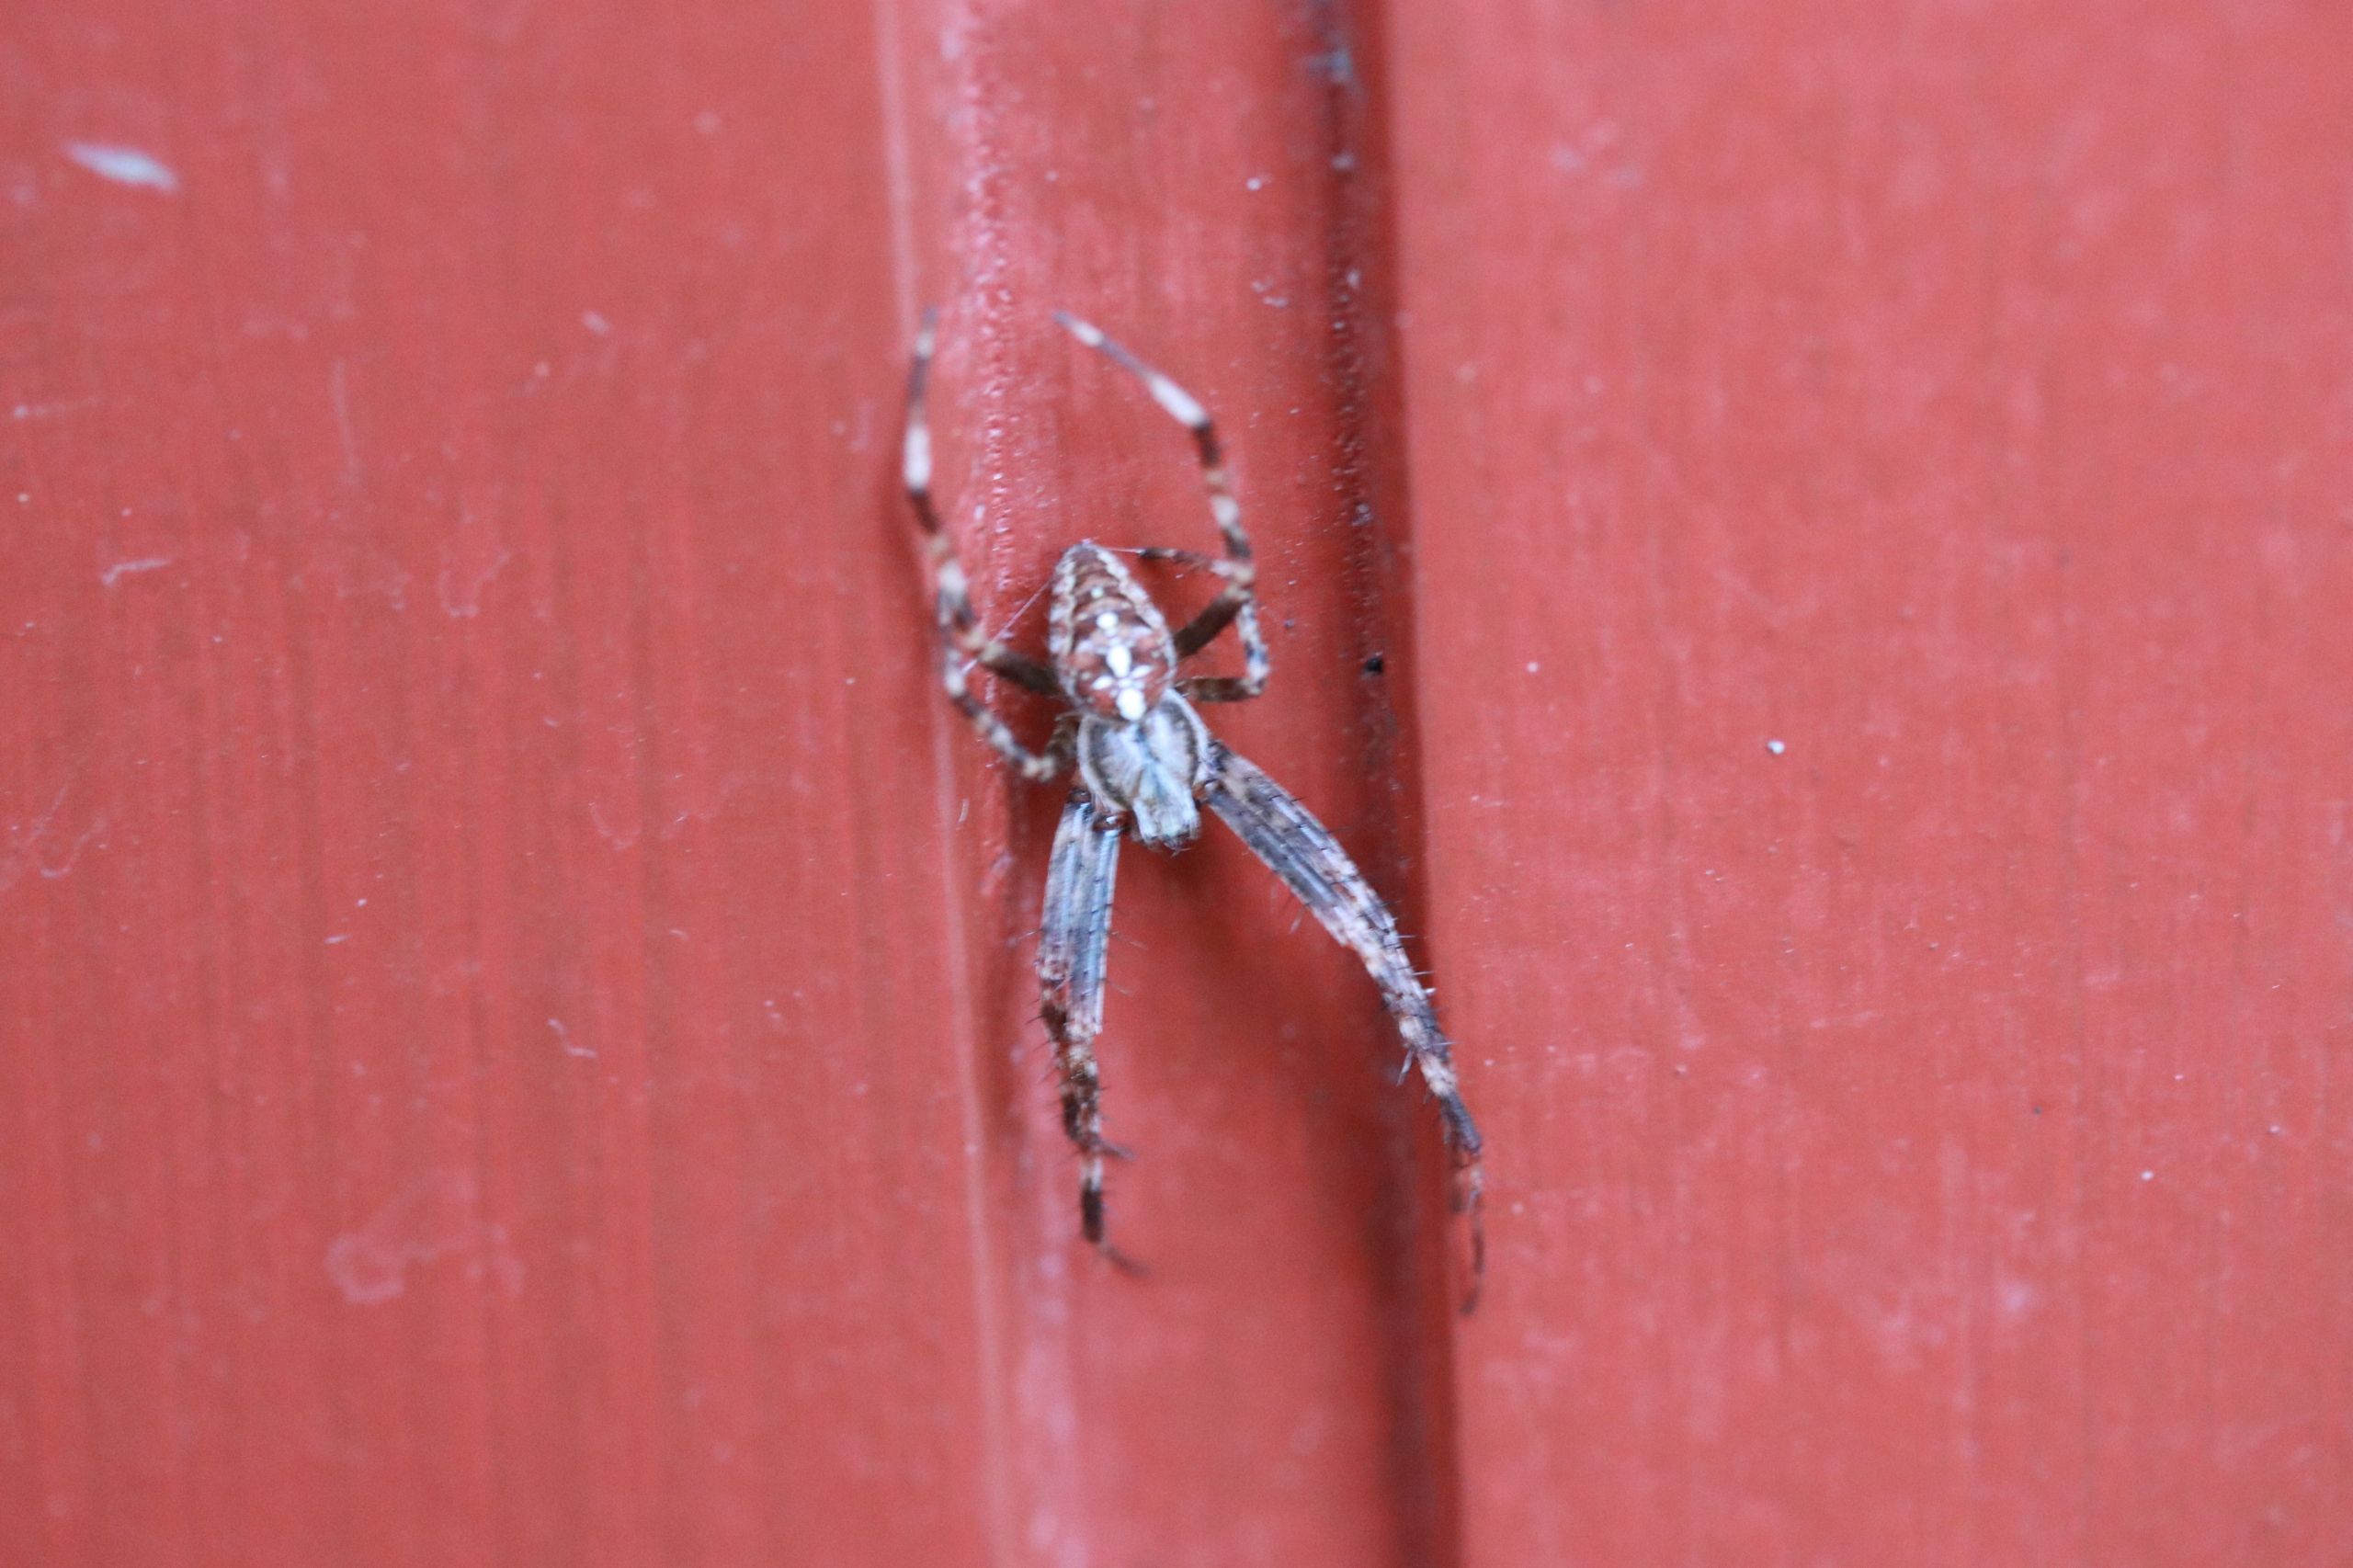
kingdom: Animalia
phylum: Arthropoda
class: Arachnida
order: Araneae
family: Araneidae
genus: Araneus
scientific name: Araneus diadematus
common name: Korsedderkop
